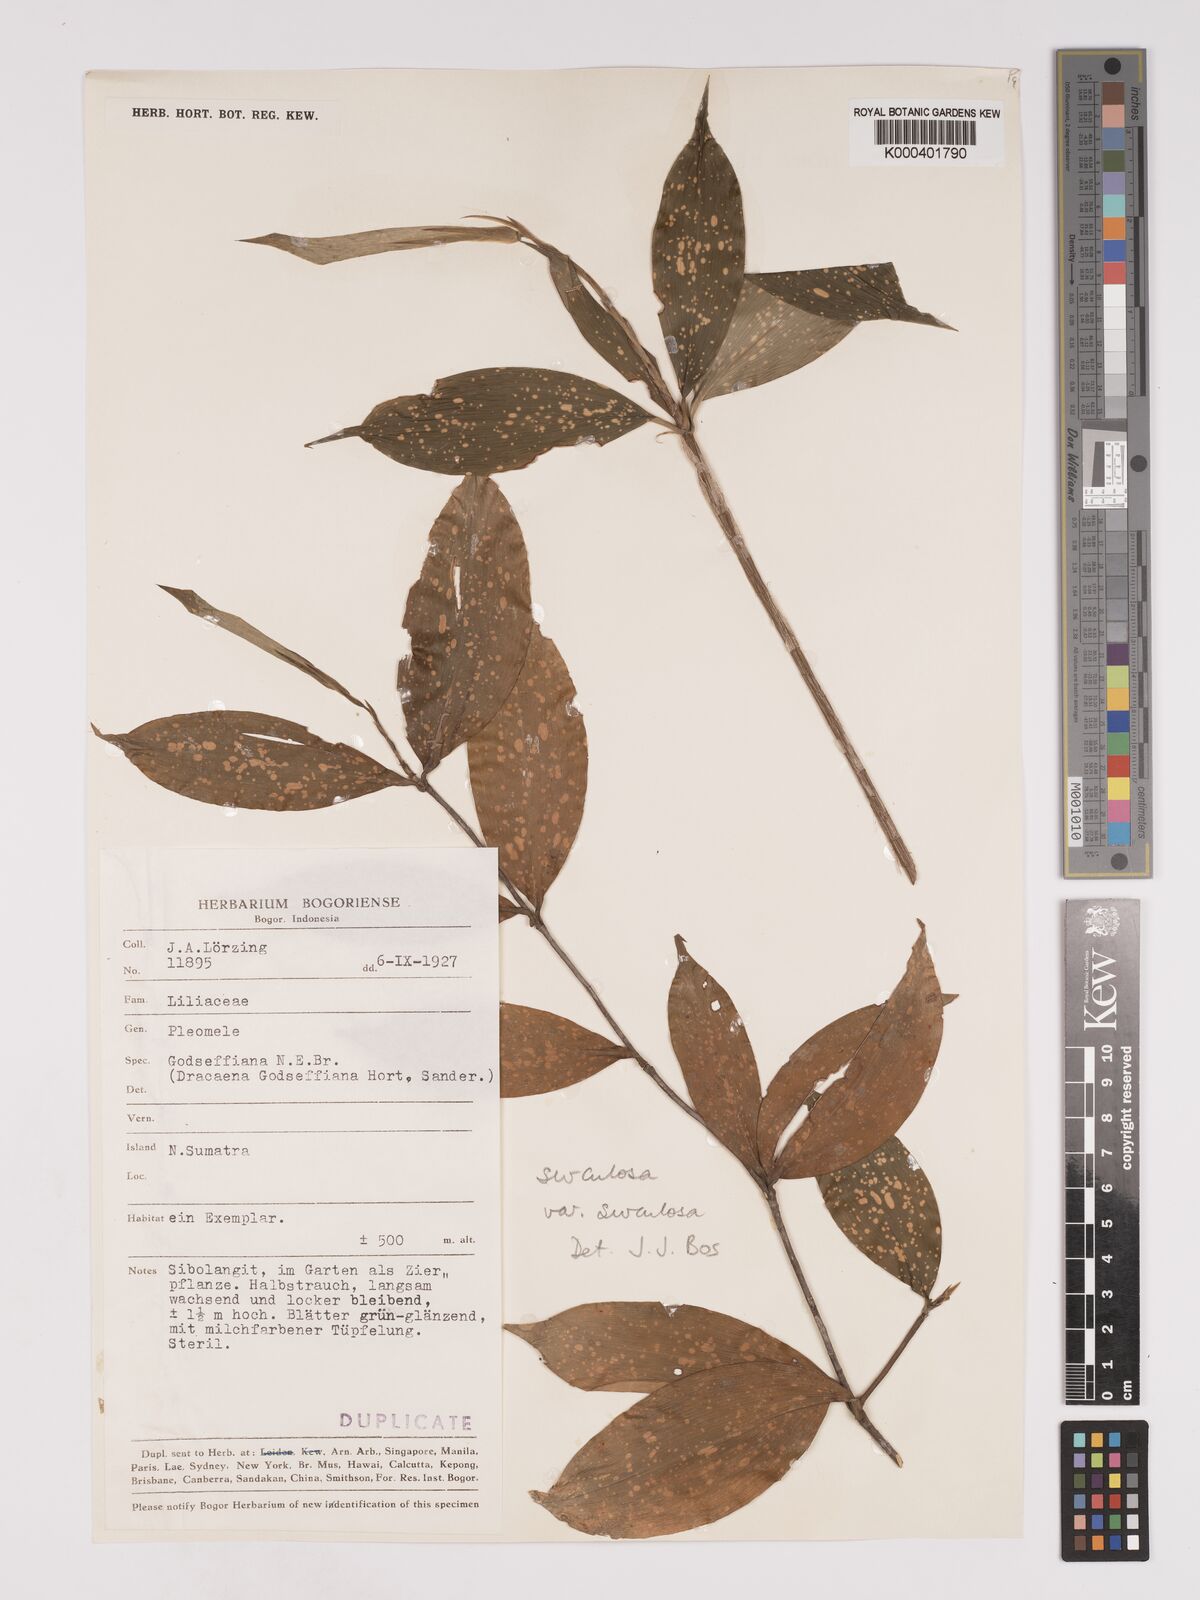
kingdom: Plantae
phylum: Tracheophyta
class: Liliopsida
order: Asparagales
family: Asparagaceae
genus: Dracaena
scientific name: Dracaena surculosa
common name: Spotted dracaena
